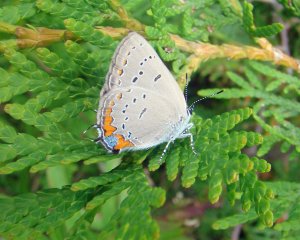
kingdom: Animalia
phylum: Arthropoda
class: Insecta
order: Lepidoptera
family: Lycaenidae
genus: Strymon
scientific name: Strymon acadica
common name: Acadian Hairstreak
